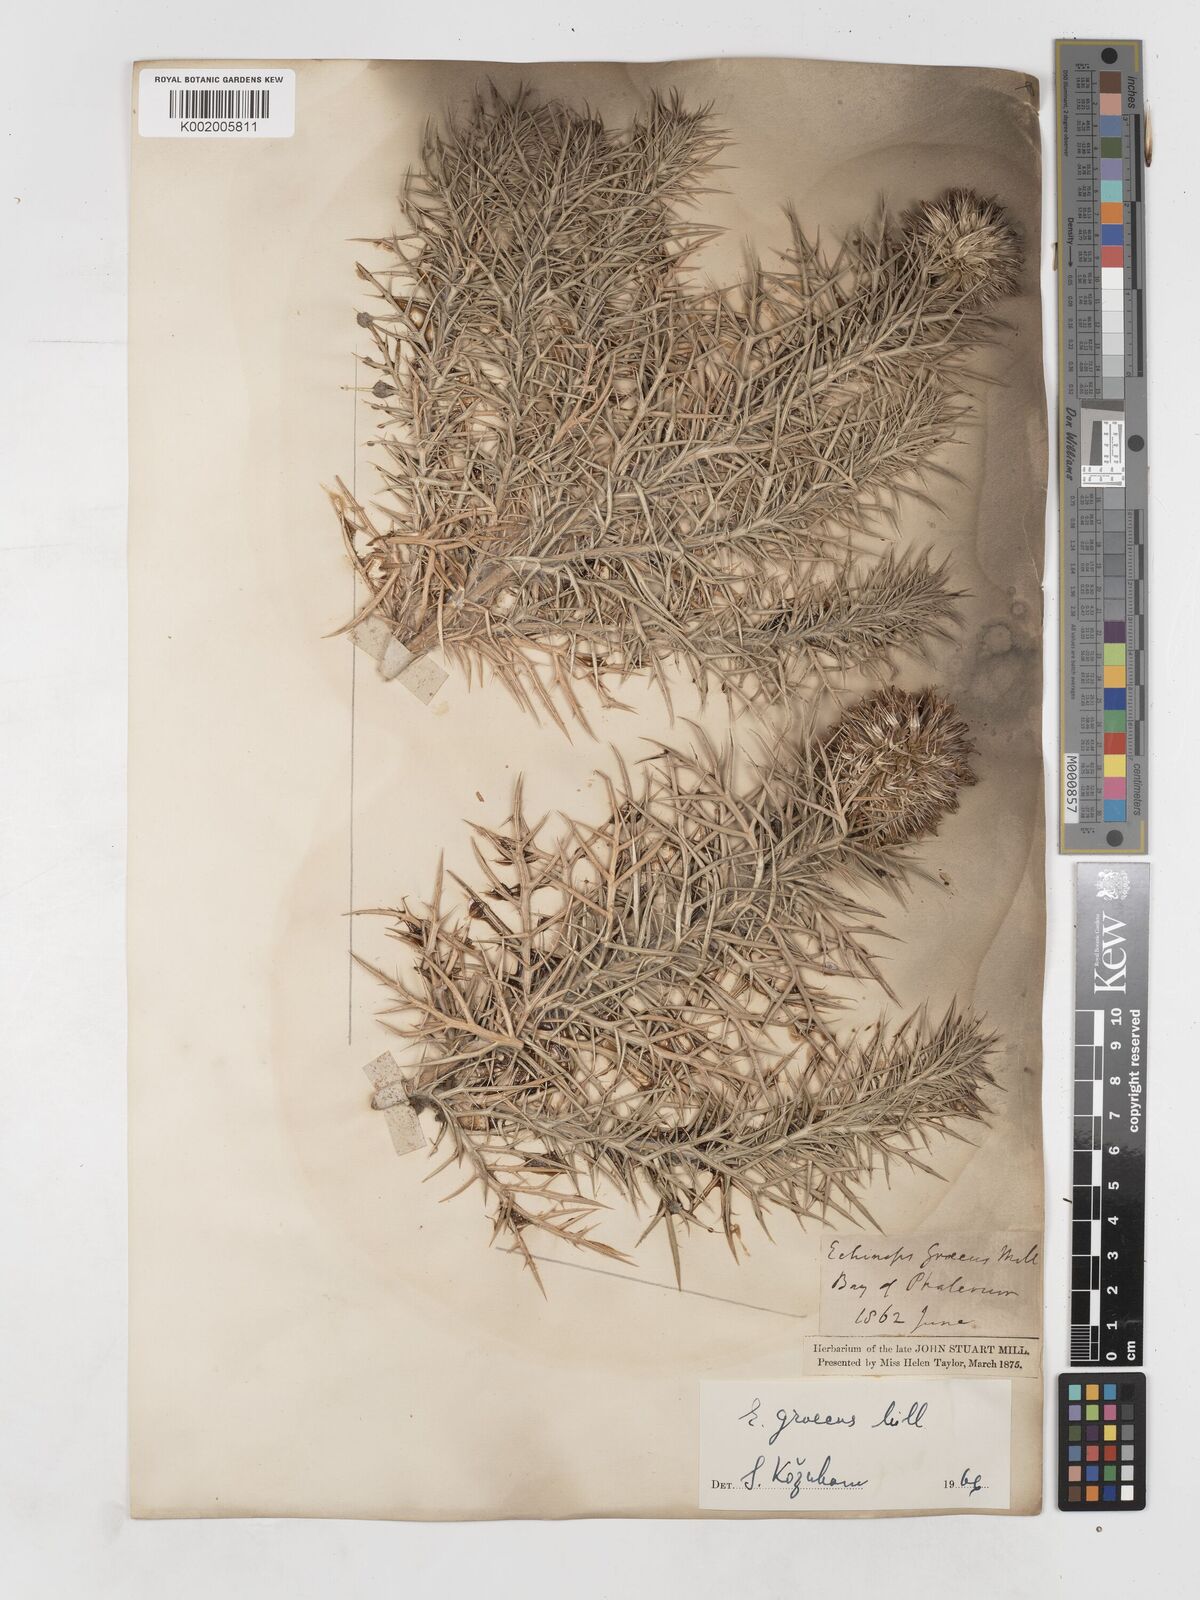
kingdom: Plantae
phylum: Tracheophyta
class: Magnoliopsida
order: Asterales
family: Asteraceae
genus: Echinops
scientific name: Echinops graecus
